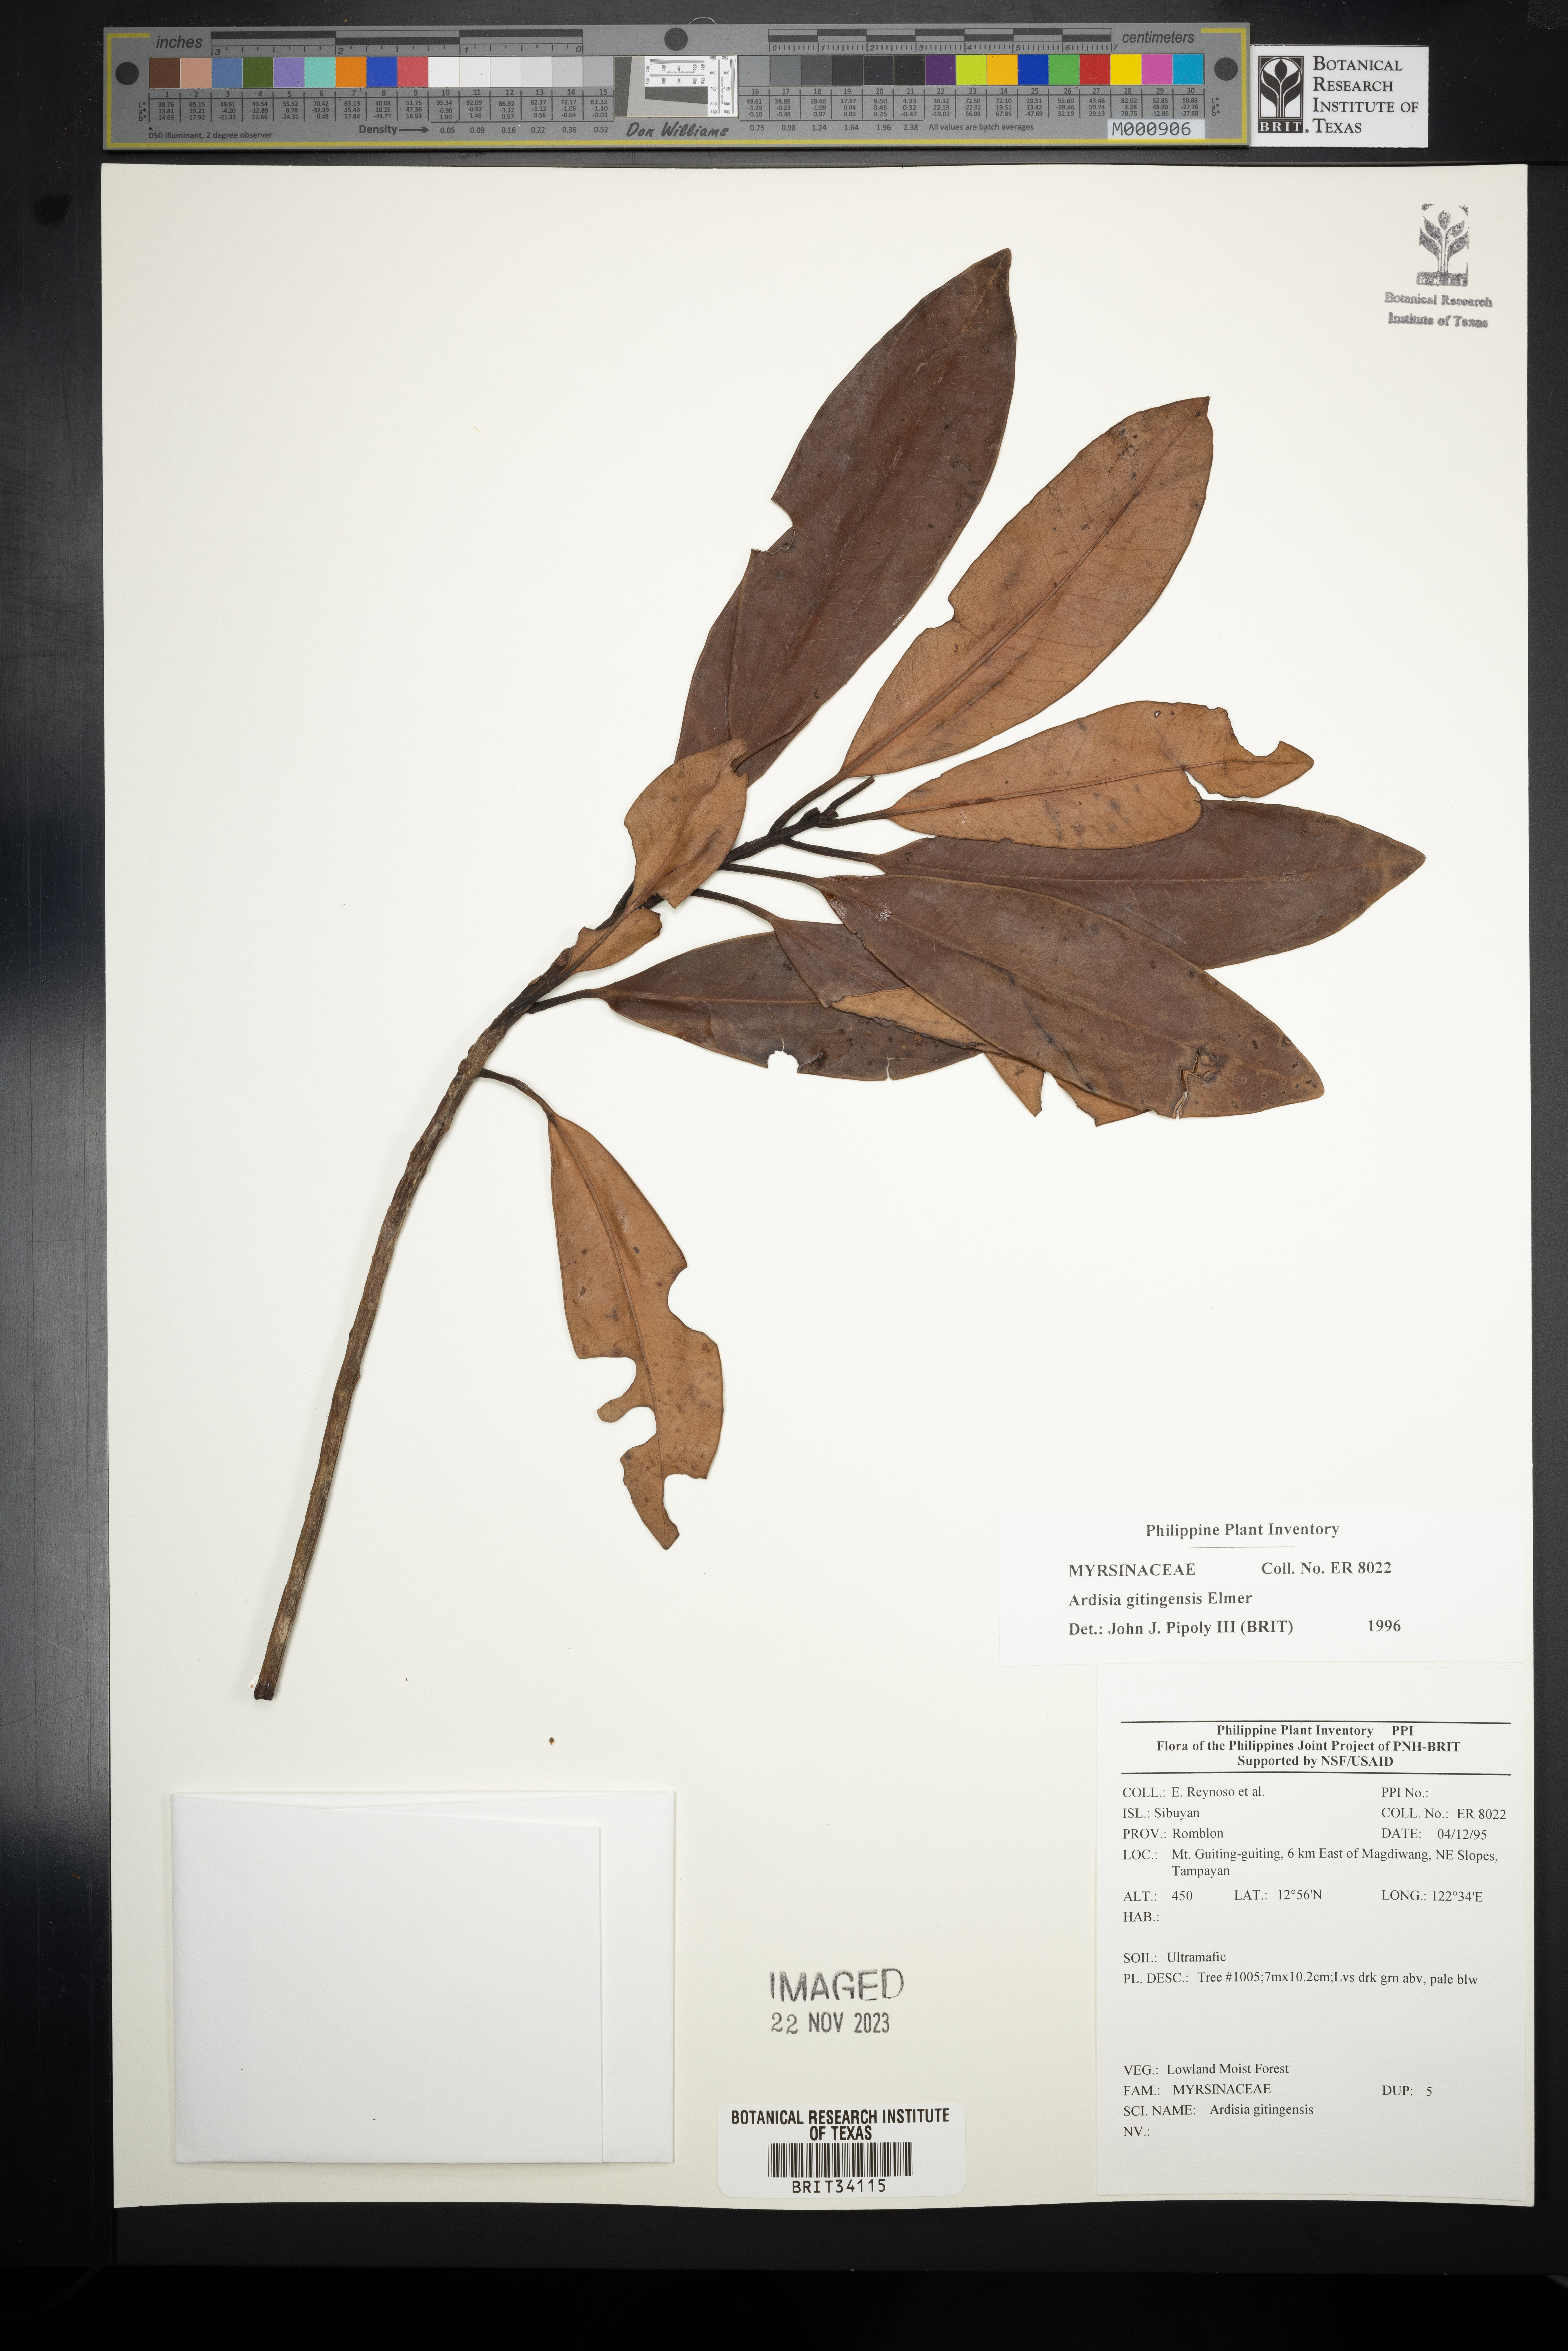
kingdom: Plantae
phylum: Tracheophyta
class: Magnoliopsida
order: Ericales
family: Primulaceae
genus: Ardisia
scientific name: Ardisia darlingii
